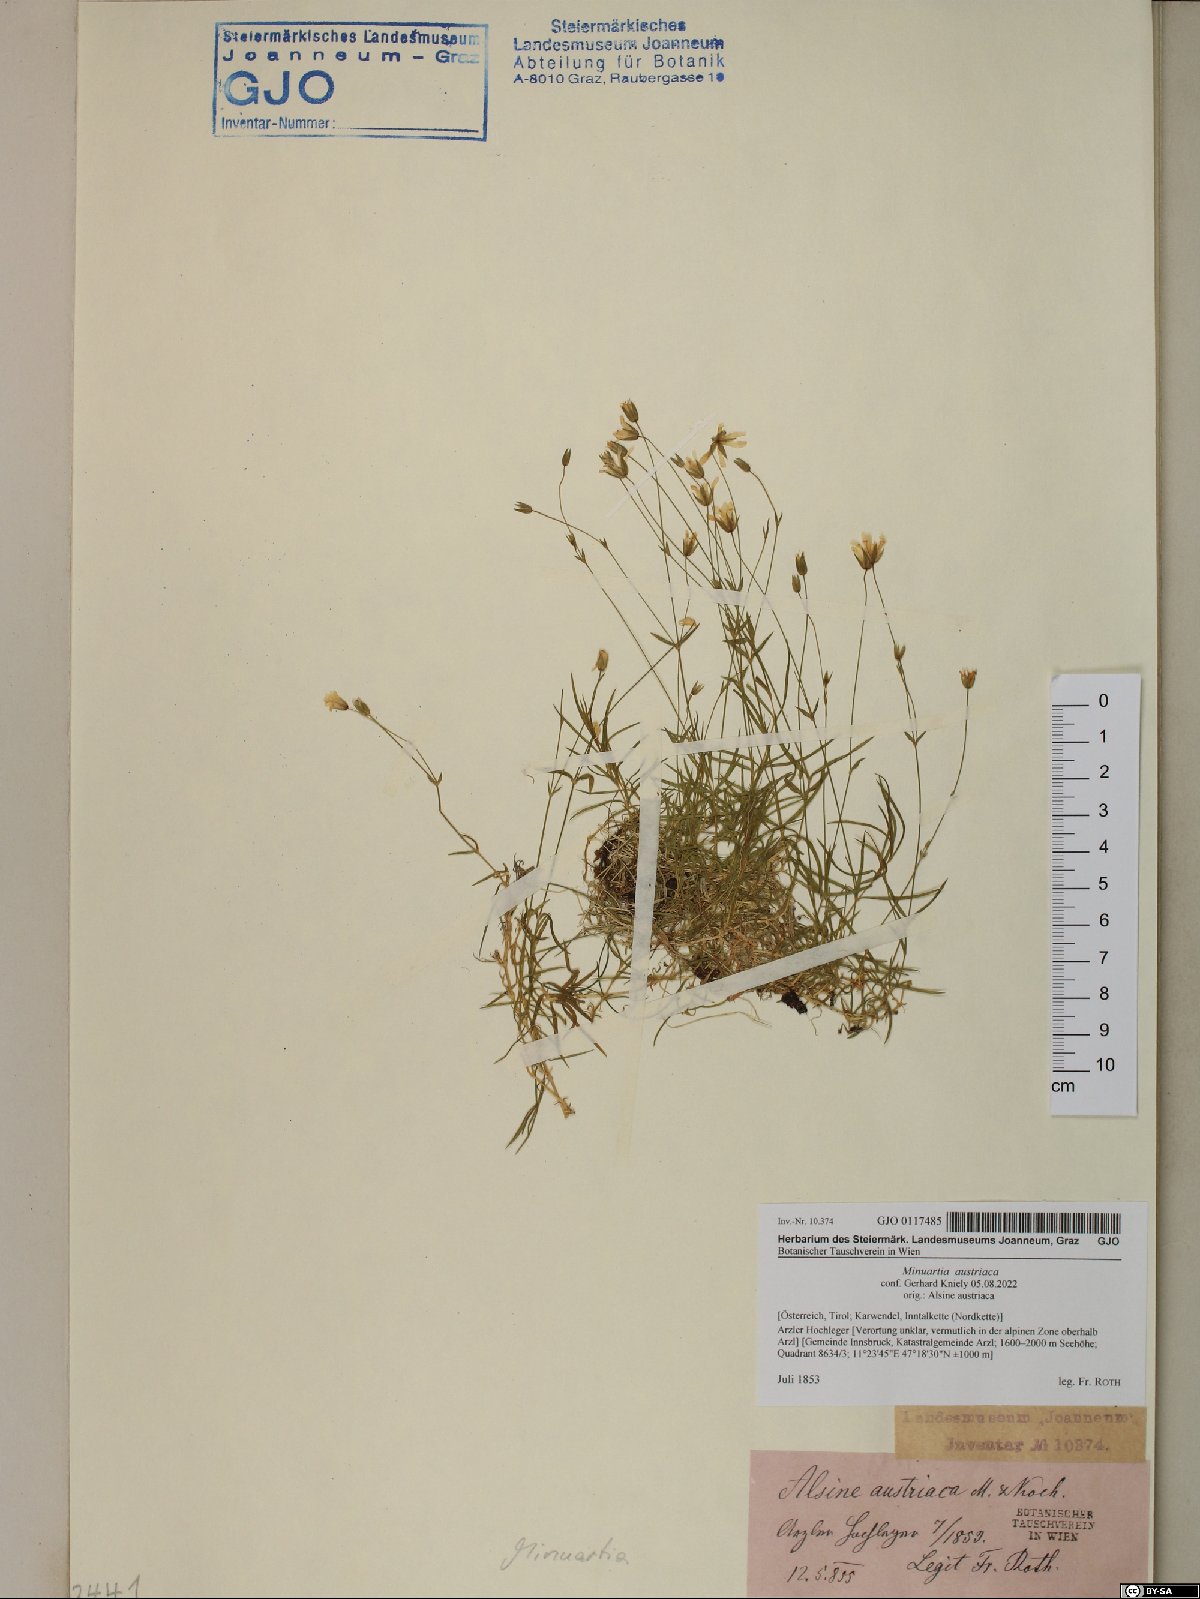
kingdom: Plantae
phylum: Tracheophyta
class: Magnoliopsida
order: Caryophyllales
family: Caryophyllaceae
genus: Sabulina
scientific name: Sabulina austriaca
